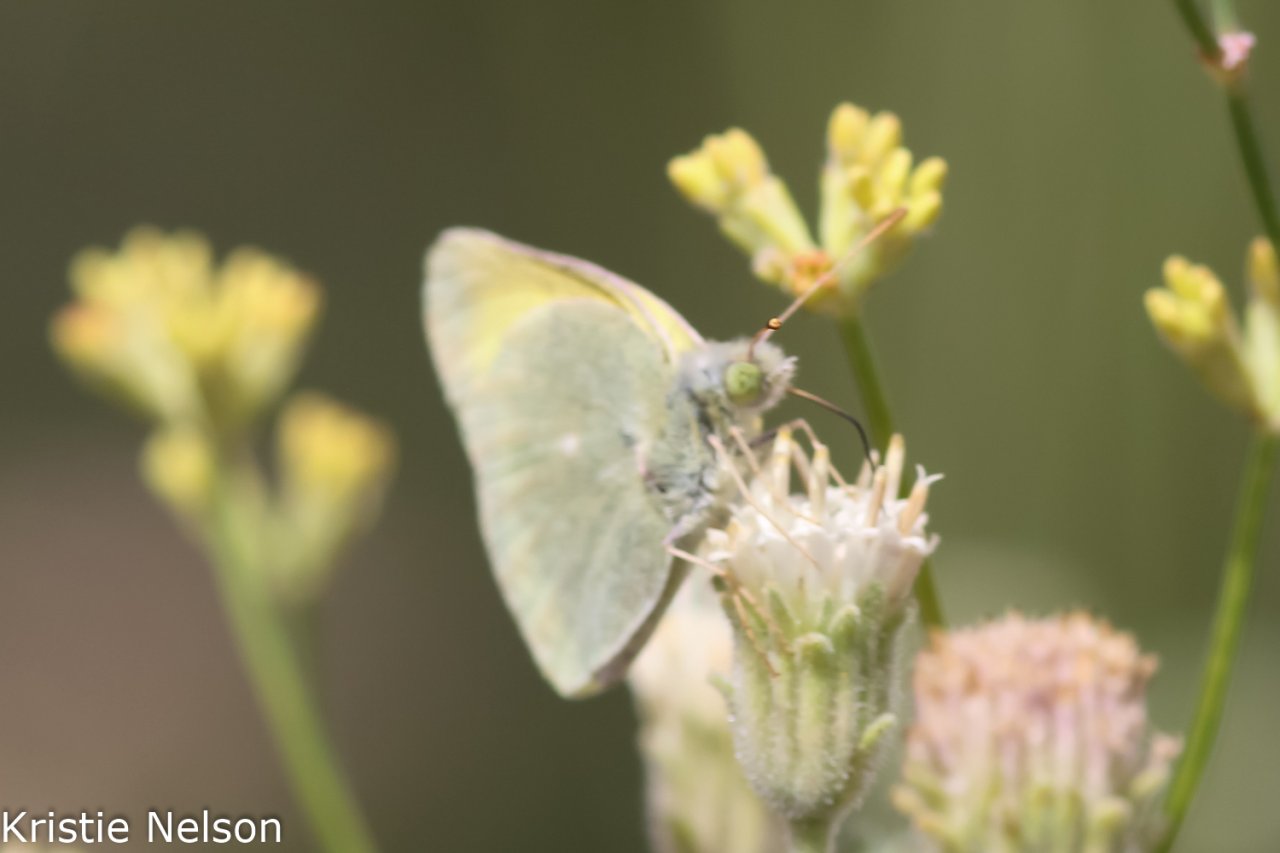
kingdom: Animalia
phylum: Arthropoda
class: Insecta
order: Lepidoptera
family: Pieridae
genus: Colias
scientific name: Colias alexandra
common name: Queen Alexandra's Sulphur
